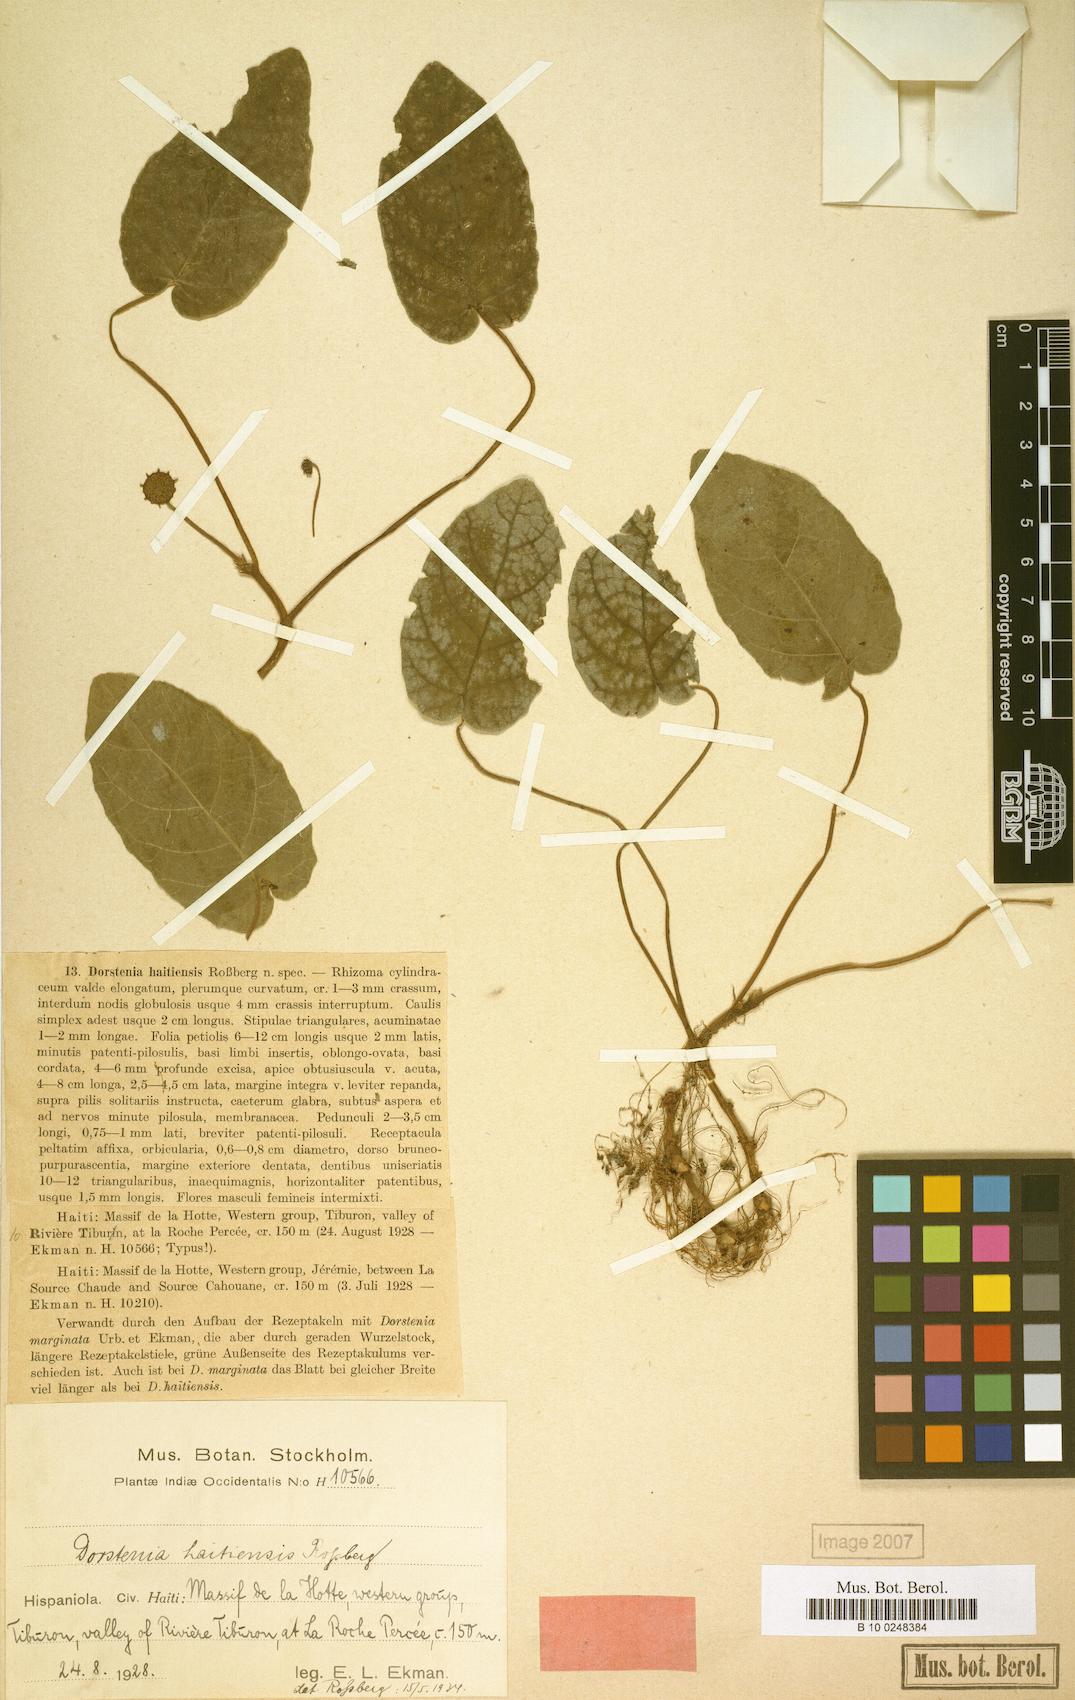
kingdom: Plantae
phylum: Tracheophyta
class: Magnoliopsida
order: Rosales
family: Moraceae
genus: Dorstenia
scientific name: Dorstenia fawcettii
